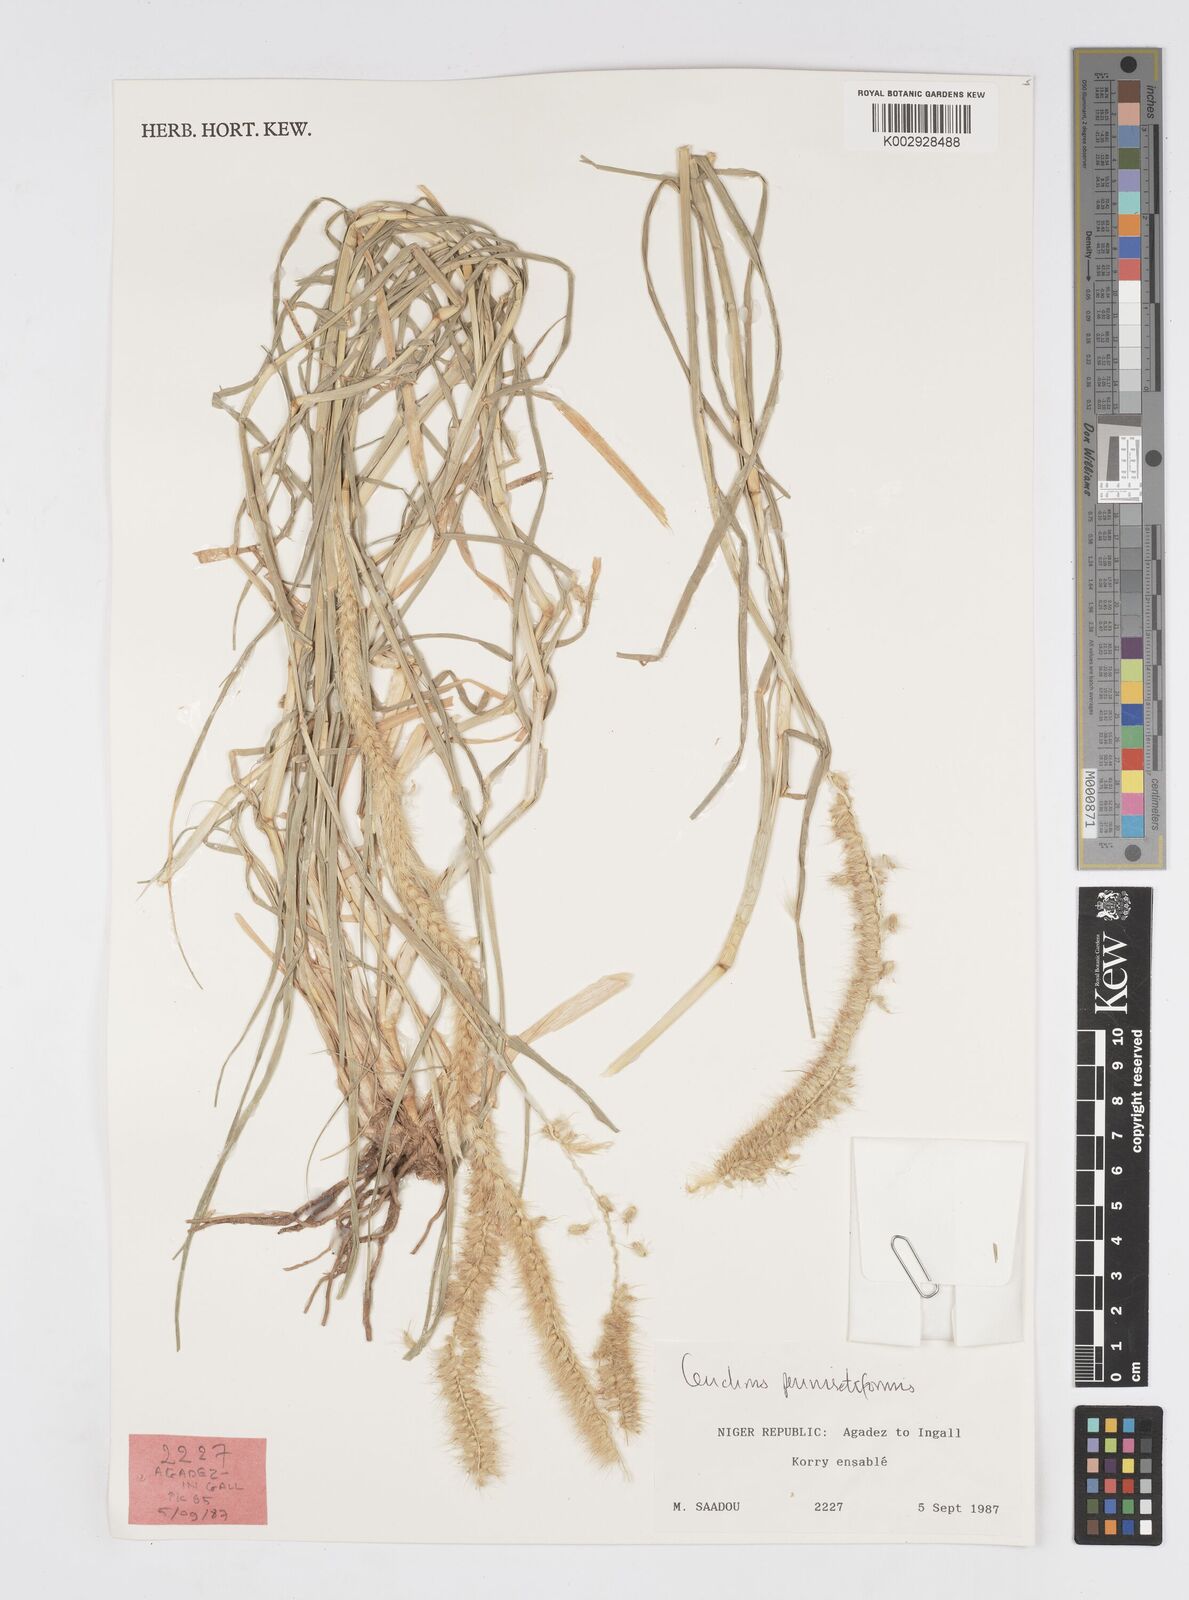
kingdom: Plantae
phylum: Tracheophyta
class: Liliopsida
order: Poales
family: Poaceae
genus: Cenchrus
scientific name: Cenchrus pennisetiformis
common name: Cloncurry
